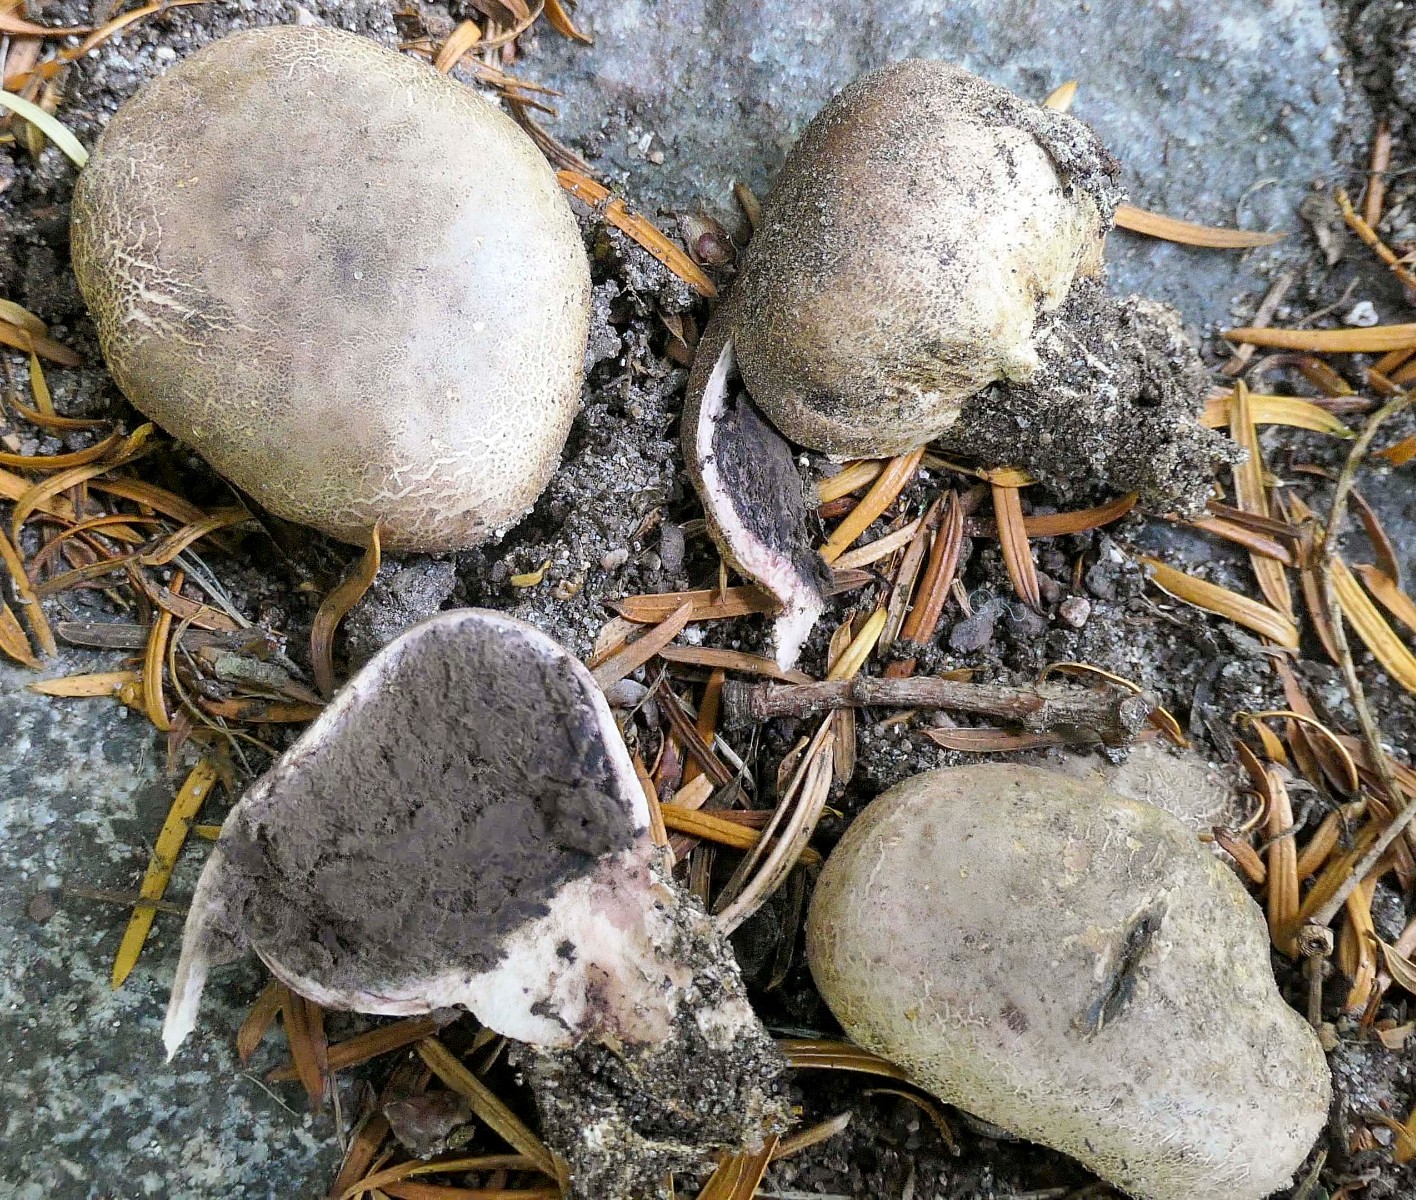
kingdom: Fungi
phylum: Basidiomycota
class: Agaricomycetes
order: Boletales
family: Sclerodermataceae
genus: Scleroderma
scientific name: Scleroderma verrucosum
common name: stilket bruskbold
